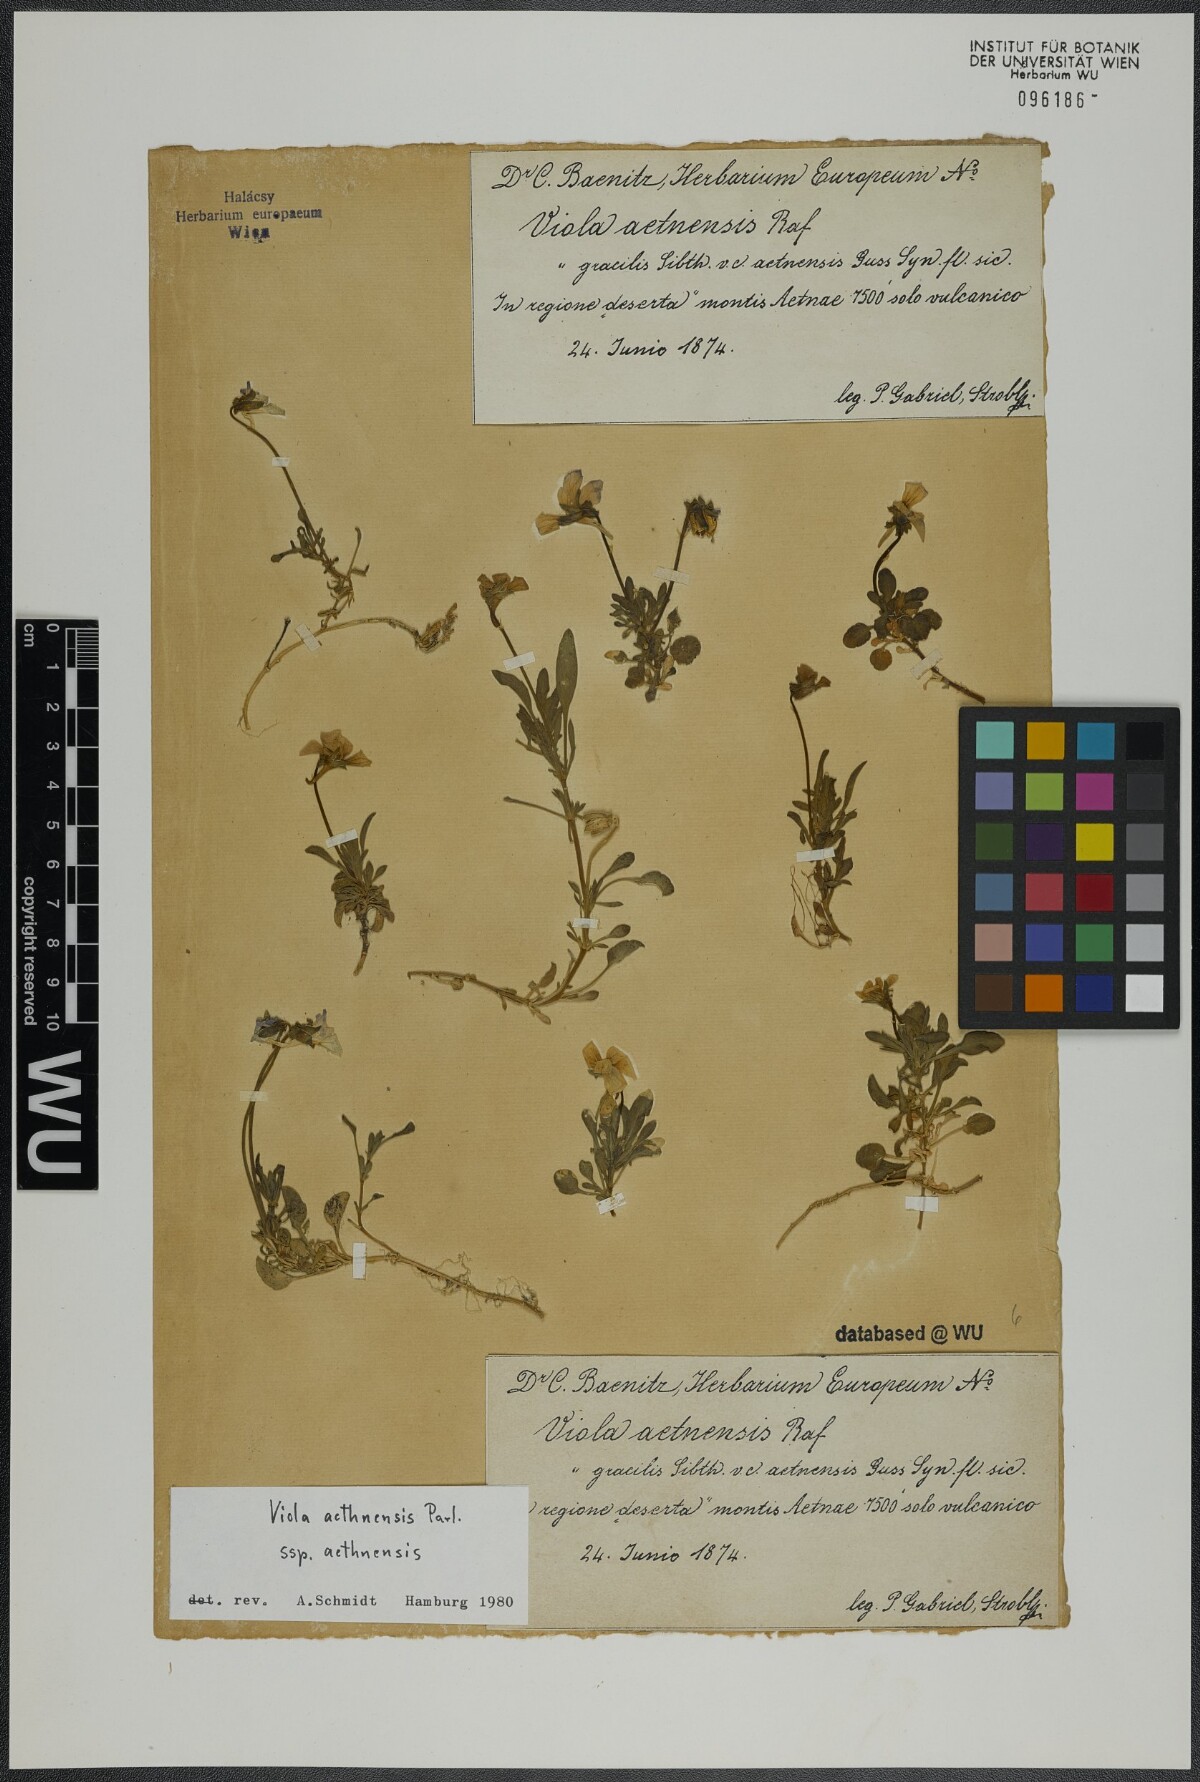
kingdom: Plantae
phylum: Tracheophyta
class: Magnoliopsida
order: Malpighiales
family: Violaceae
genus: Viola
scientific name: Viola aethnensis
